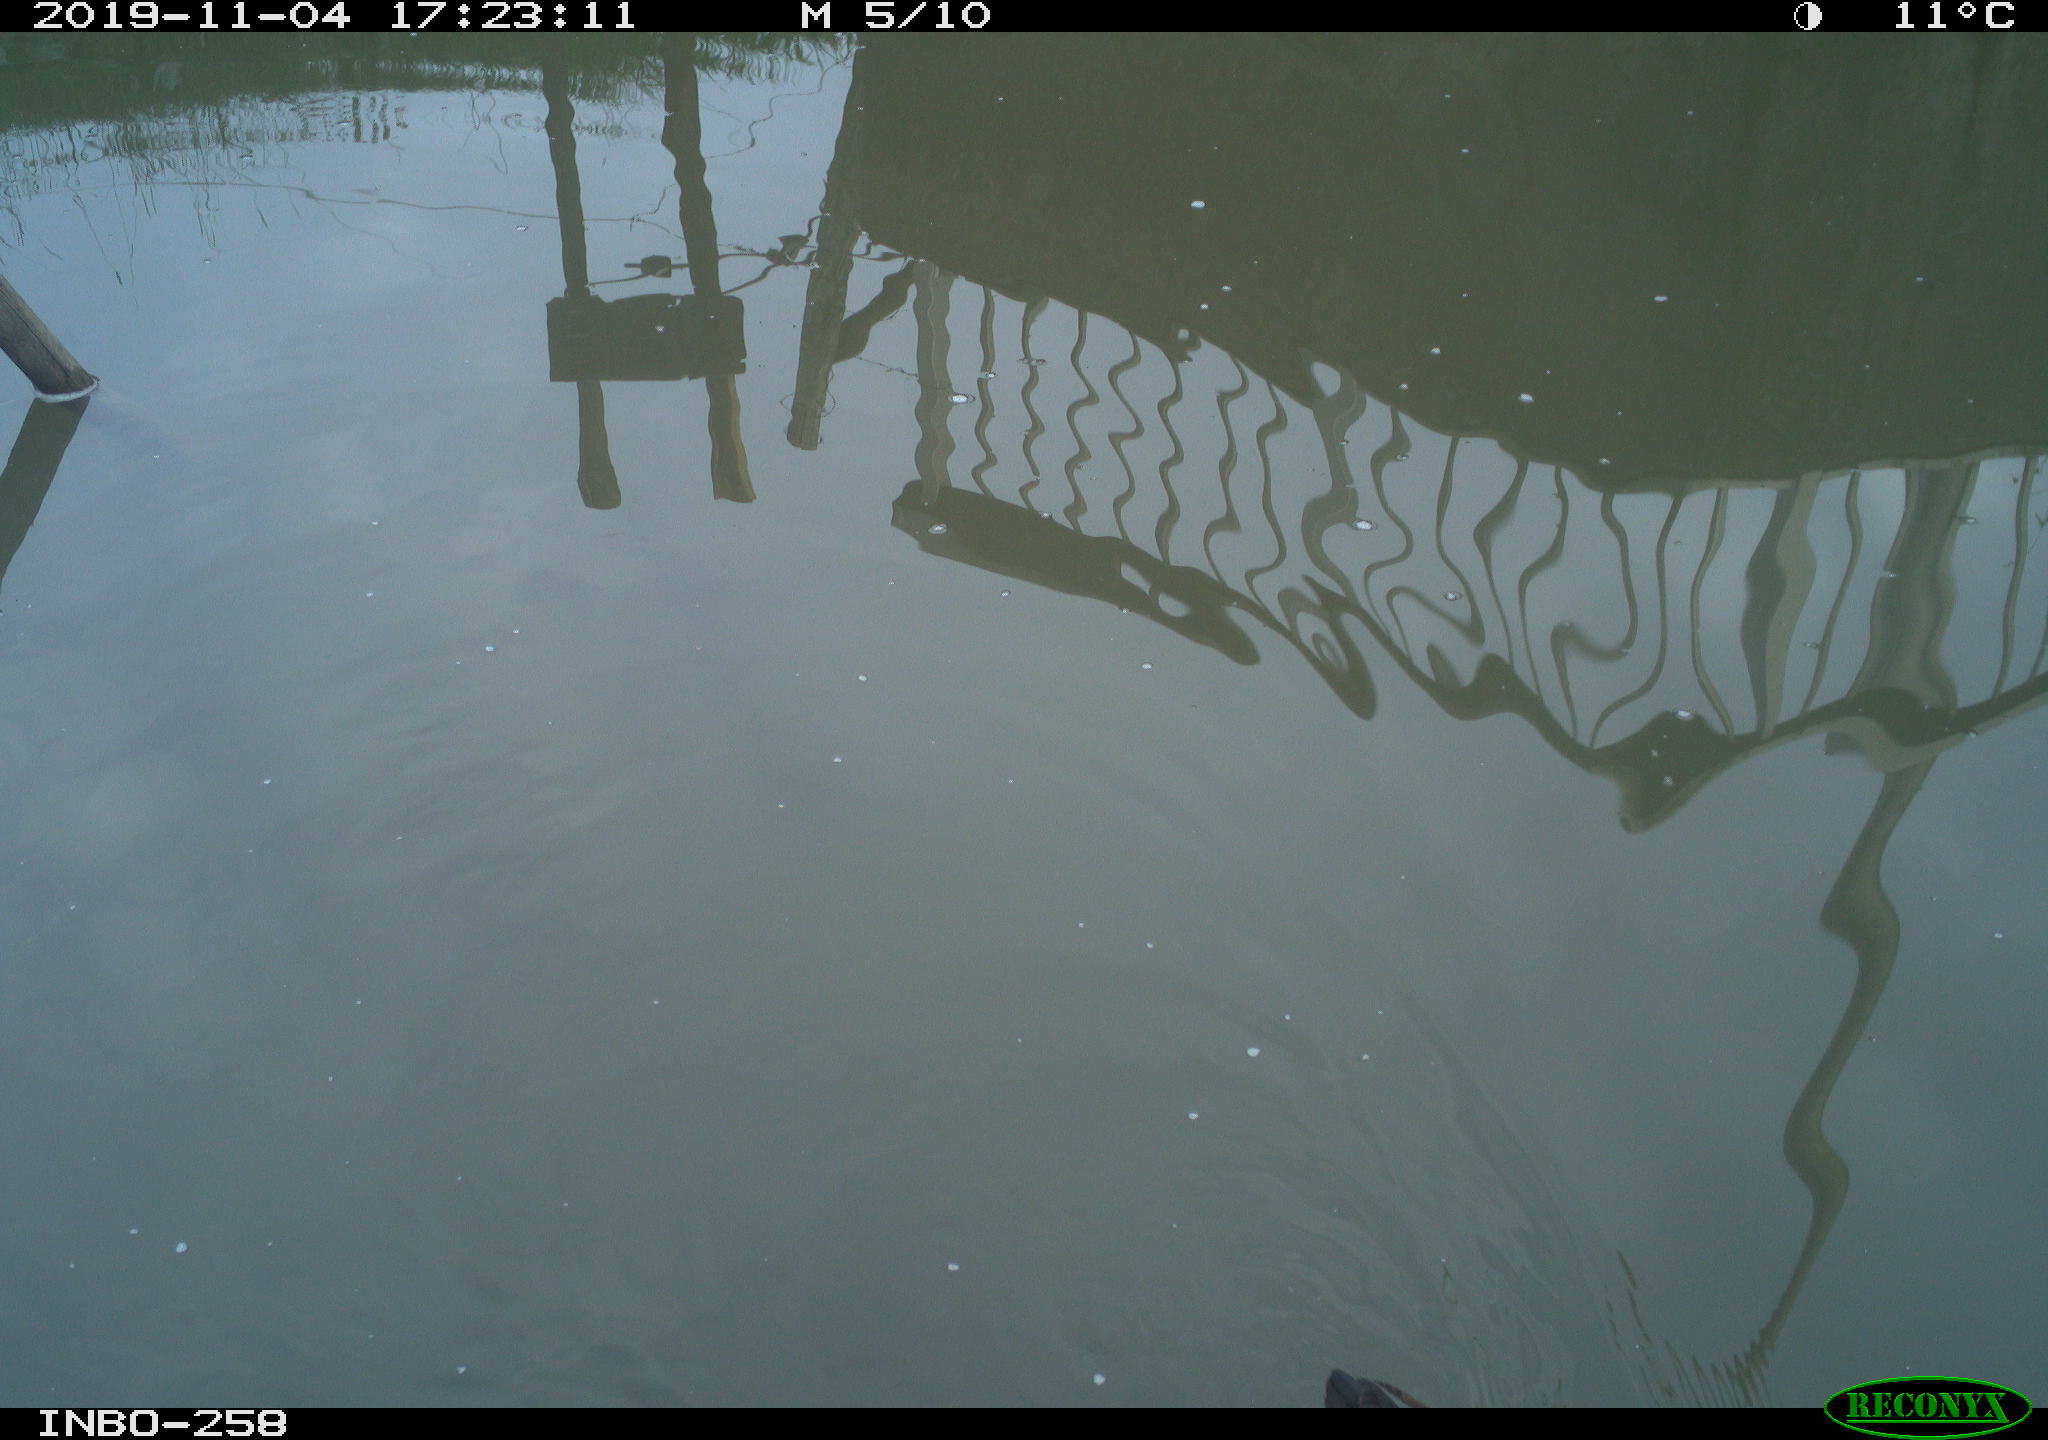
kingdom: Animalia
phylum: Chordata
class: Aves
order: Gruiformes
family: Rallidae
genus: Gallinula
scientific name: Gallinula chloropus
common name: Common moorhen
